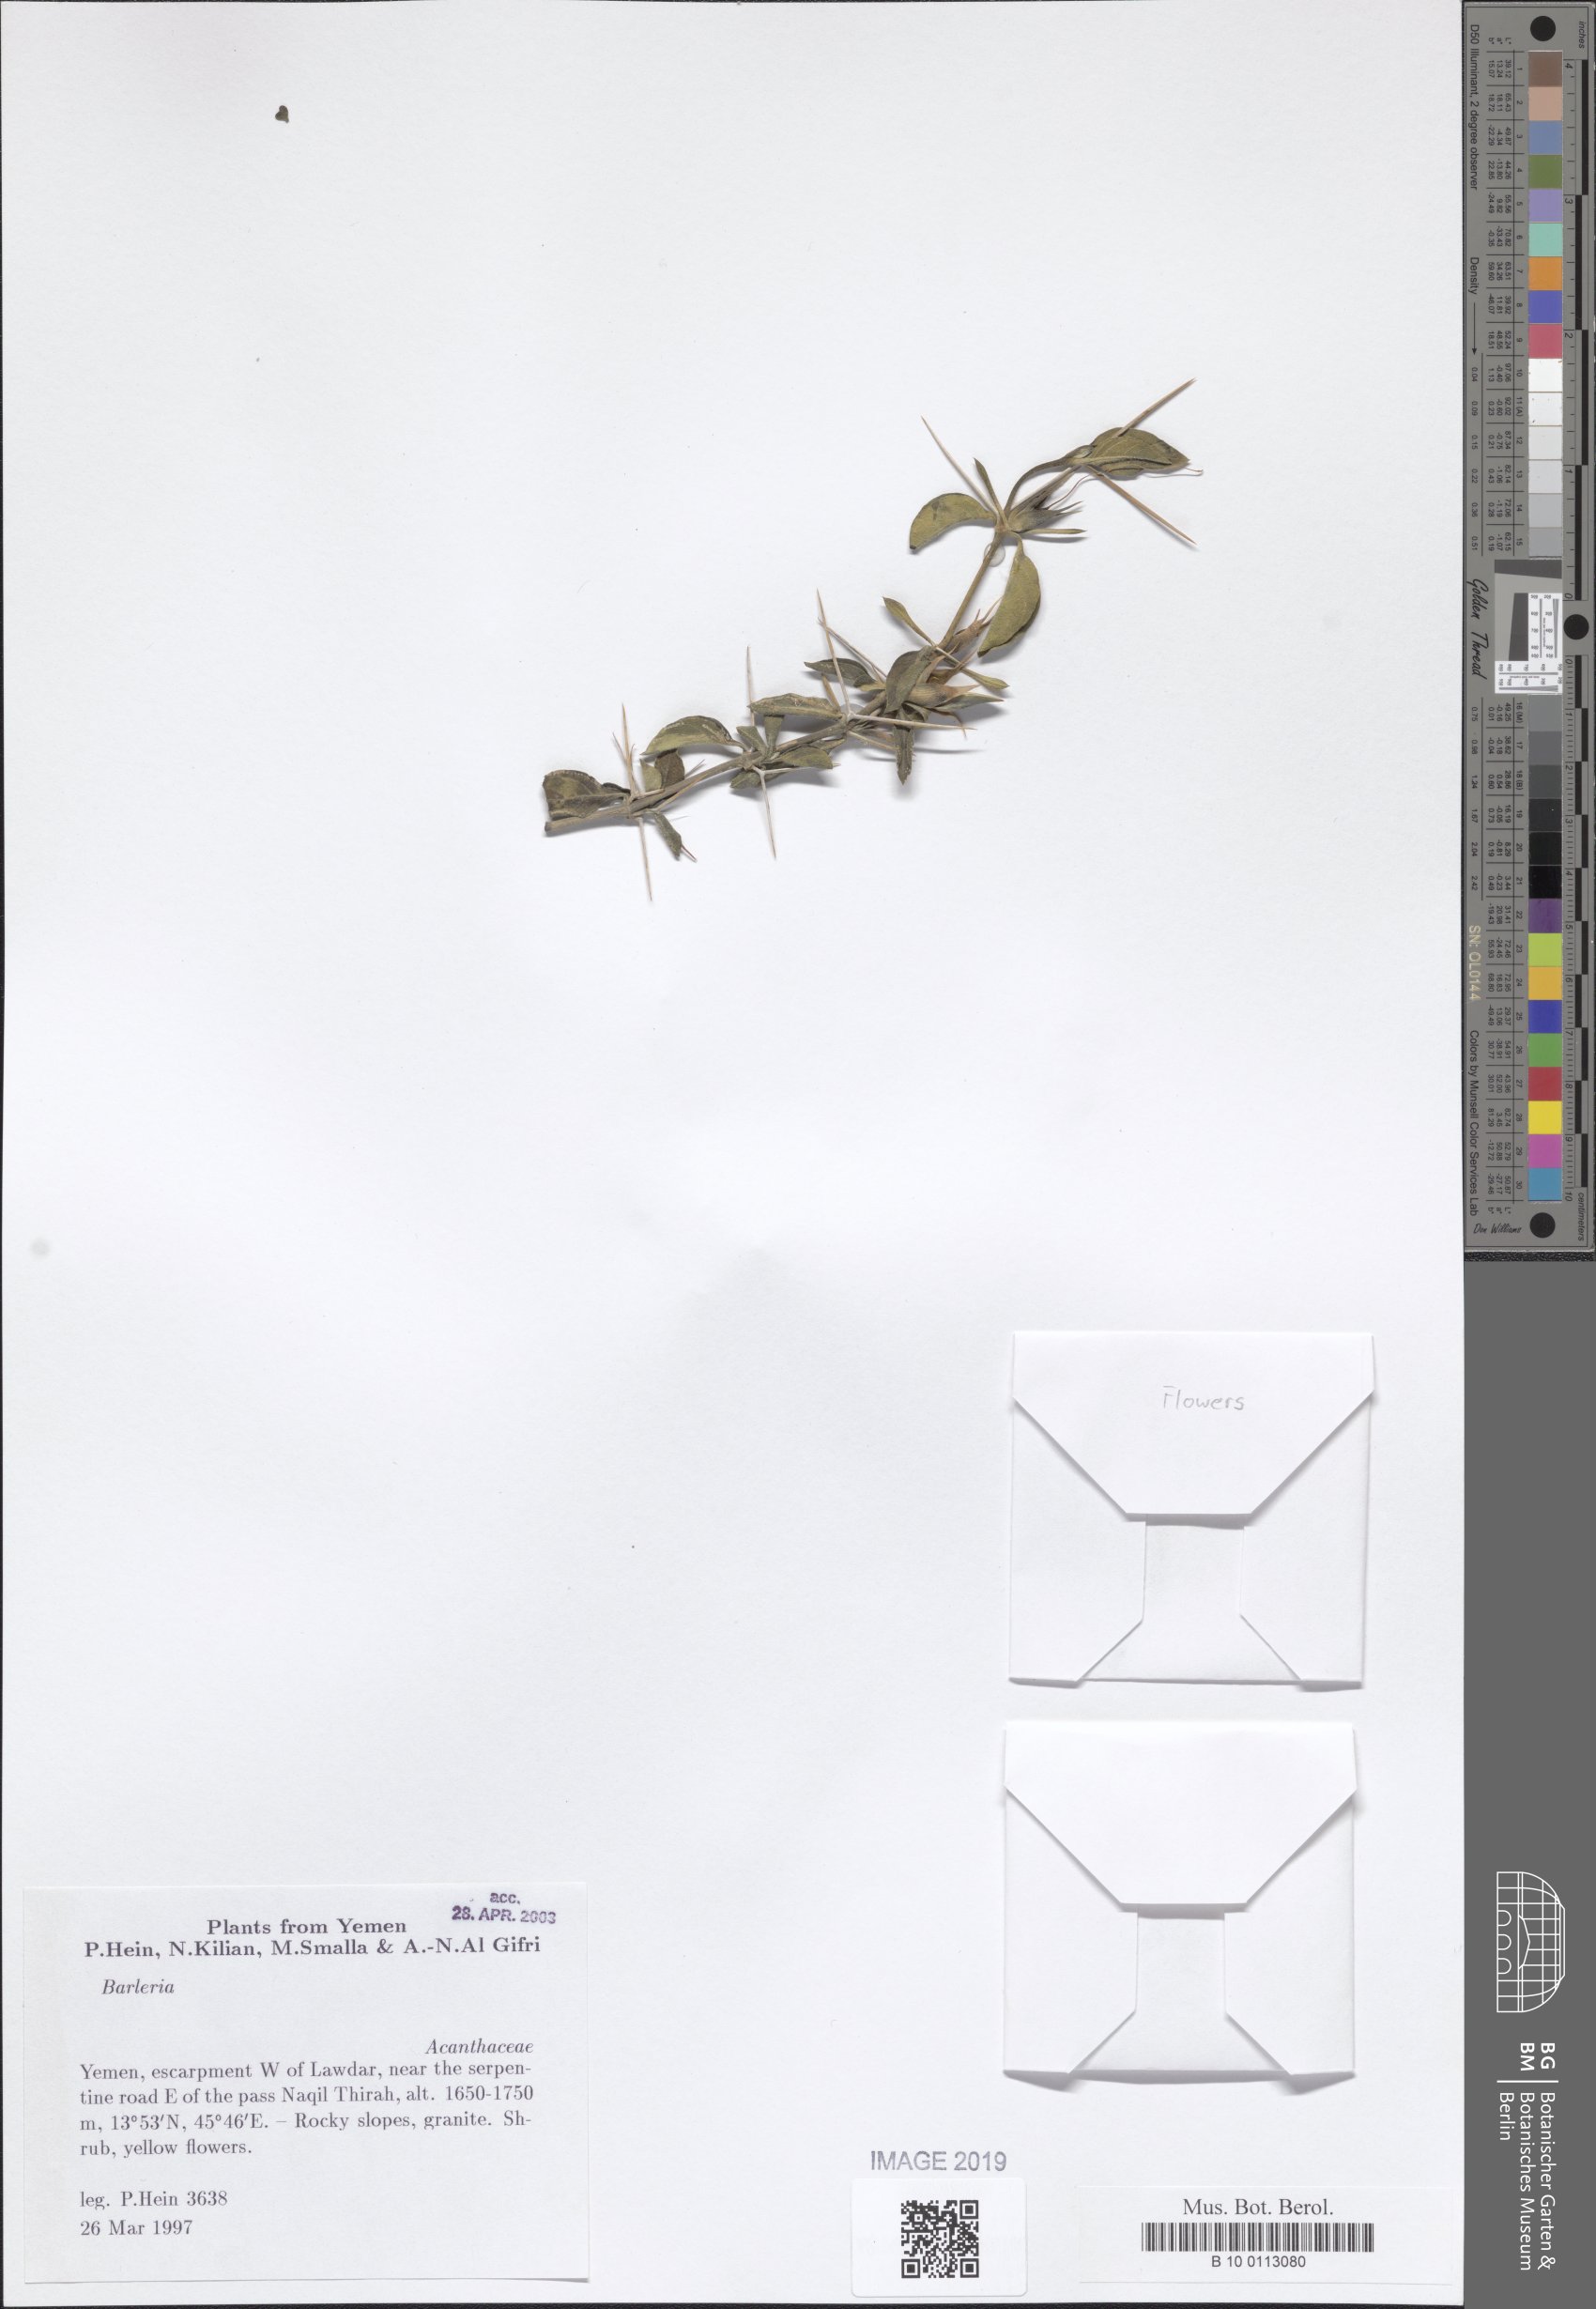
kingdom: Plantae
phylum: Tracheophyta
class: Magnoliopsida
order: Lamiales
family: Acanthaceae
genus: Barleria
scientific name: Barleria
